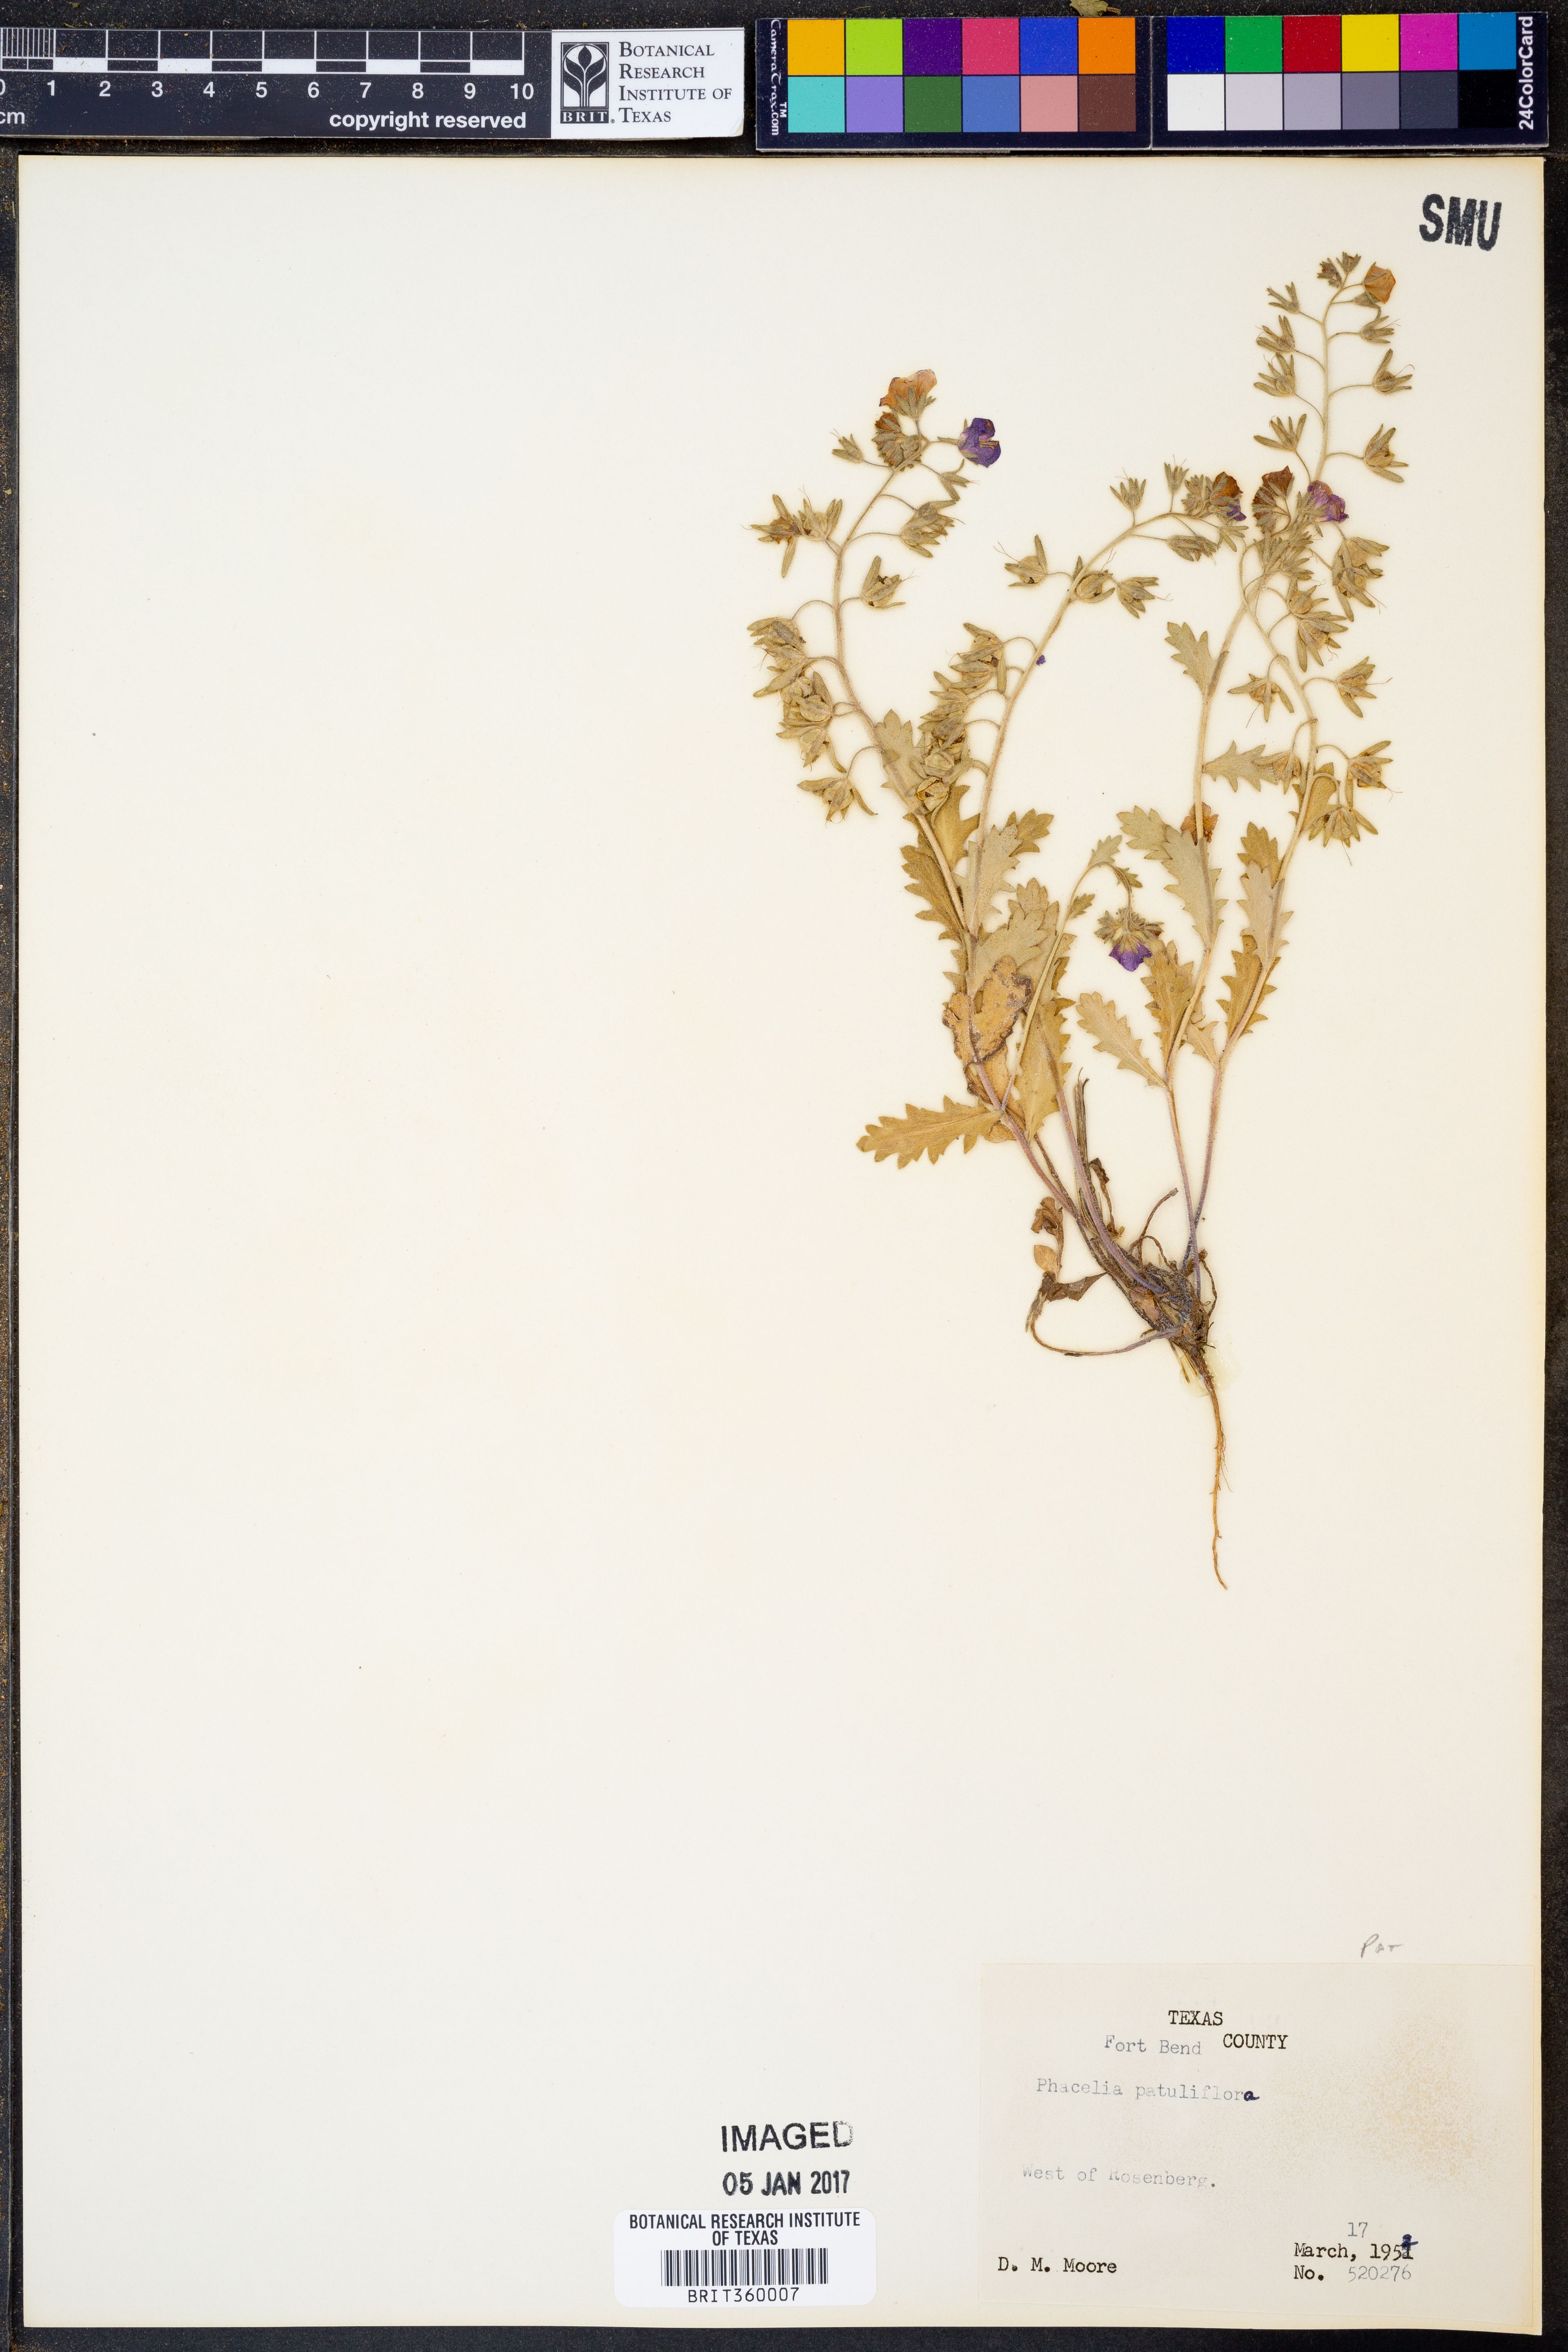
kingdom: Plantae
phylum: Tracheophyta
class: Magnoliopsida
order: Boraginales
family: Hydrophyllaceae
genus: Phacelia
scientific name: Phacelia patuliflora
